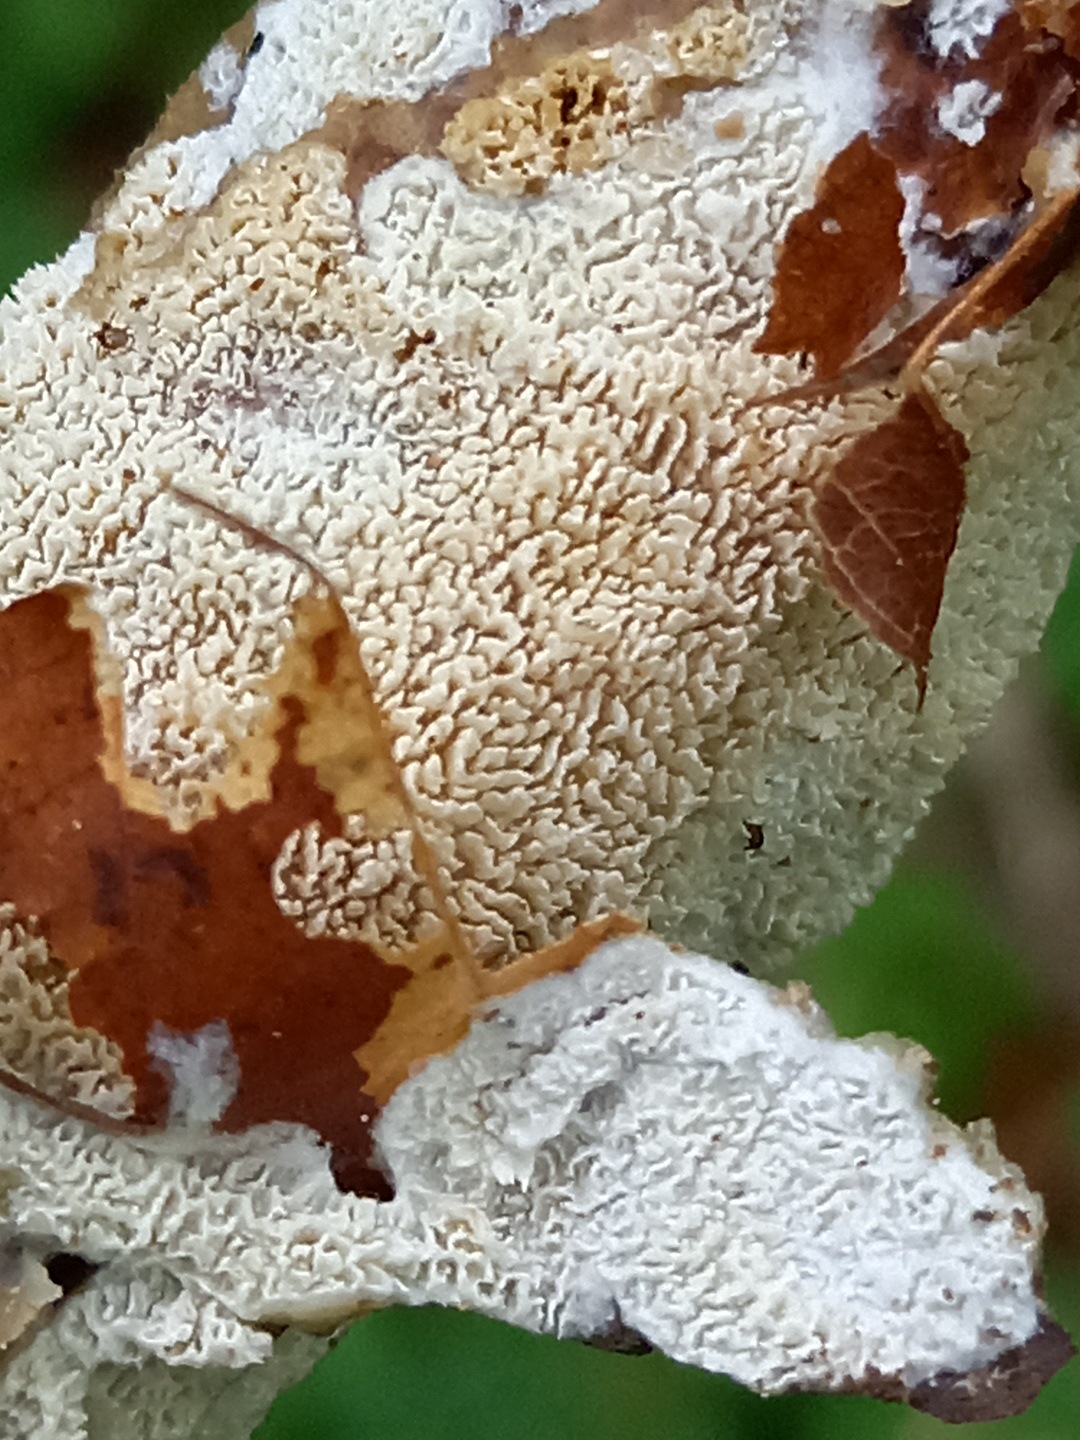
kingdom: Fungi
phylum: Basidiomycota
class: Agaricomycetes
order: Hymenochaetales
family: Schizoporaceae
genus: Xylodon
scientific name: Xylodon
